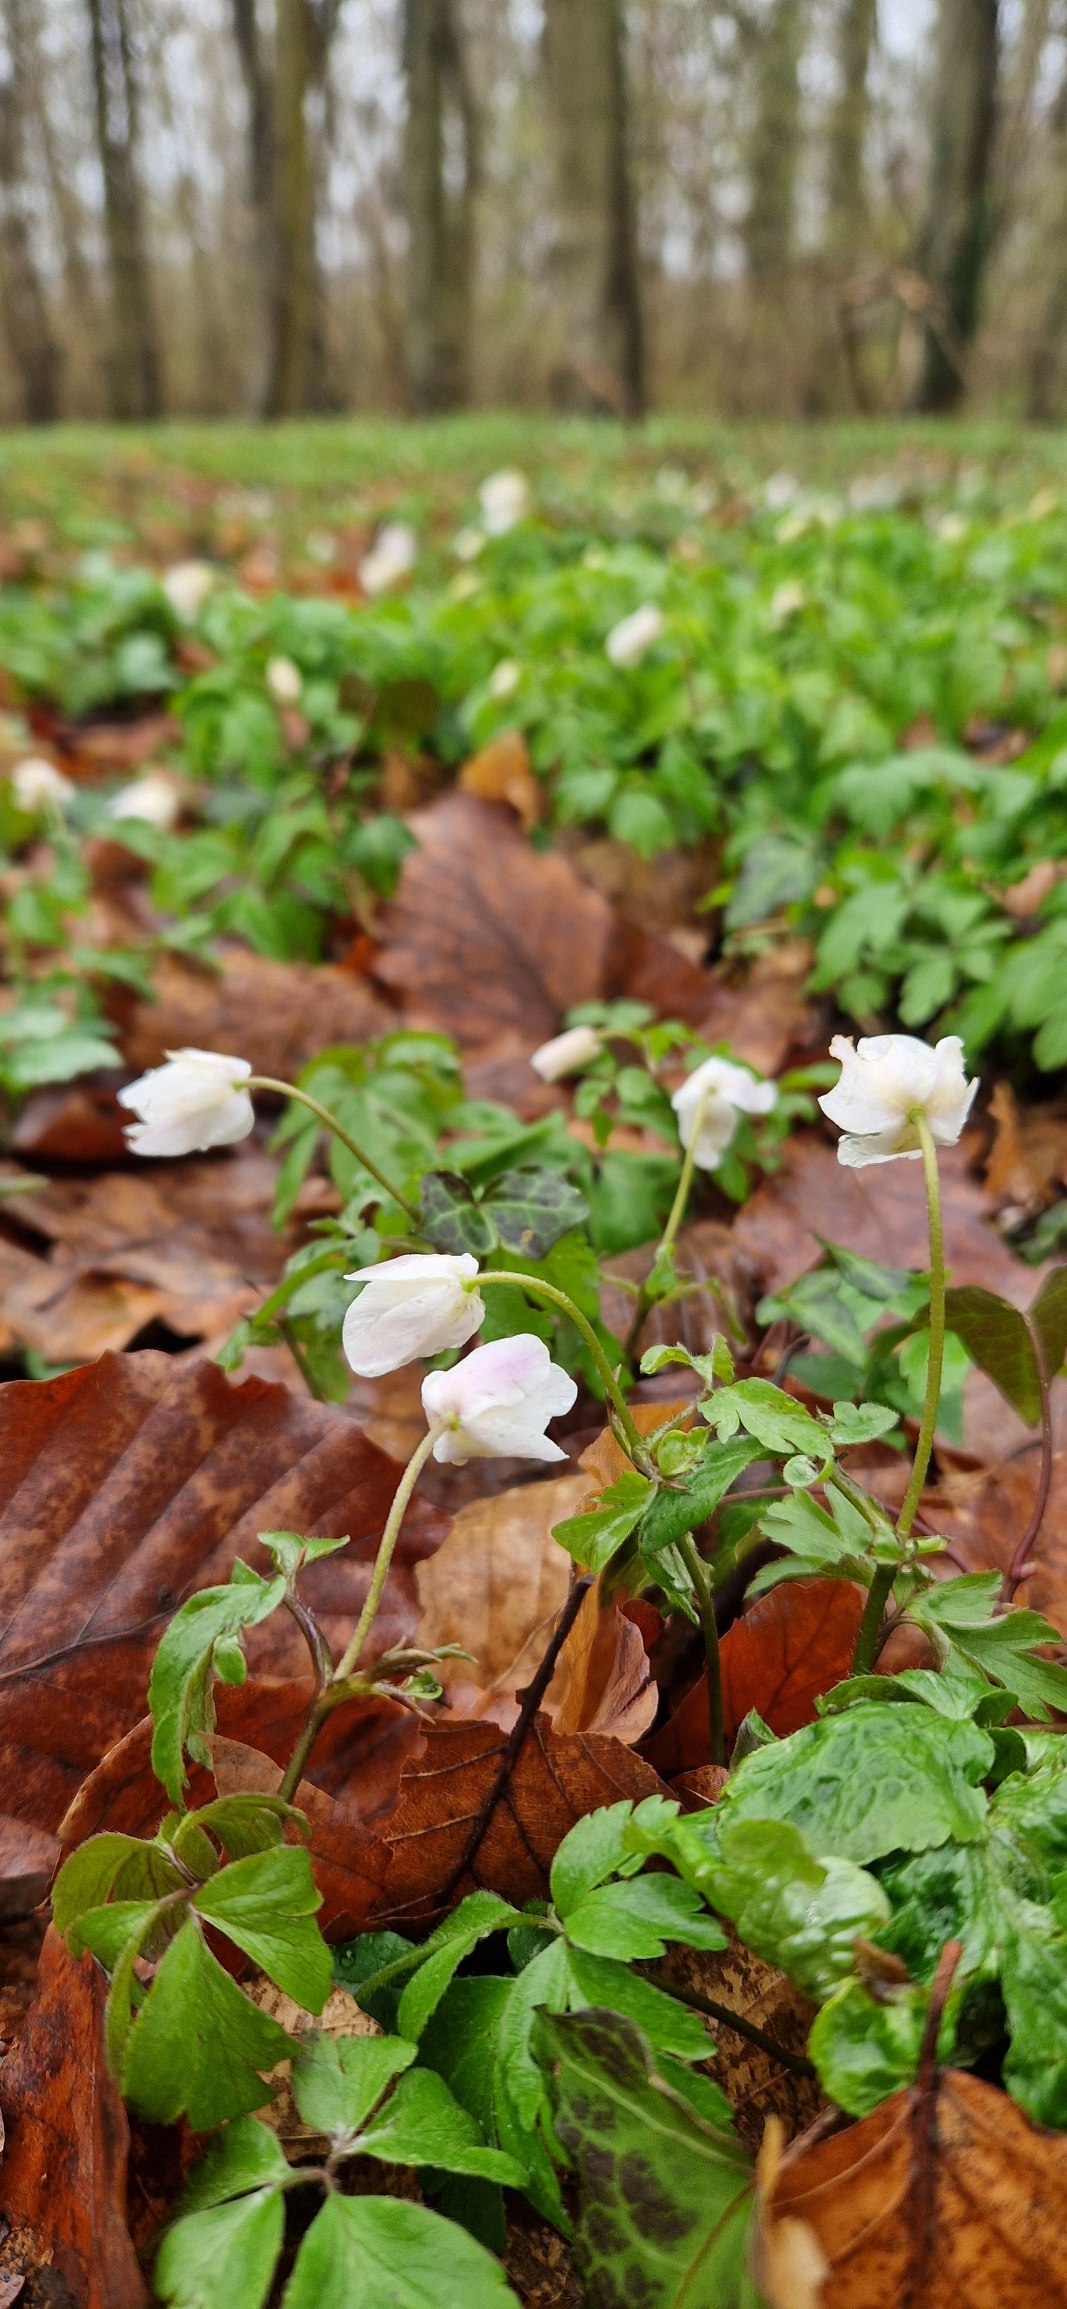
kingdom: Plantae
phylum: Tracheophyta
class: Magnoliopsida
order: Ranunculales
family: Ranunculaceae
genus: Anemone
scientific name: Anemone nemorosa
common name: Hvid anemone
